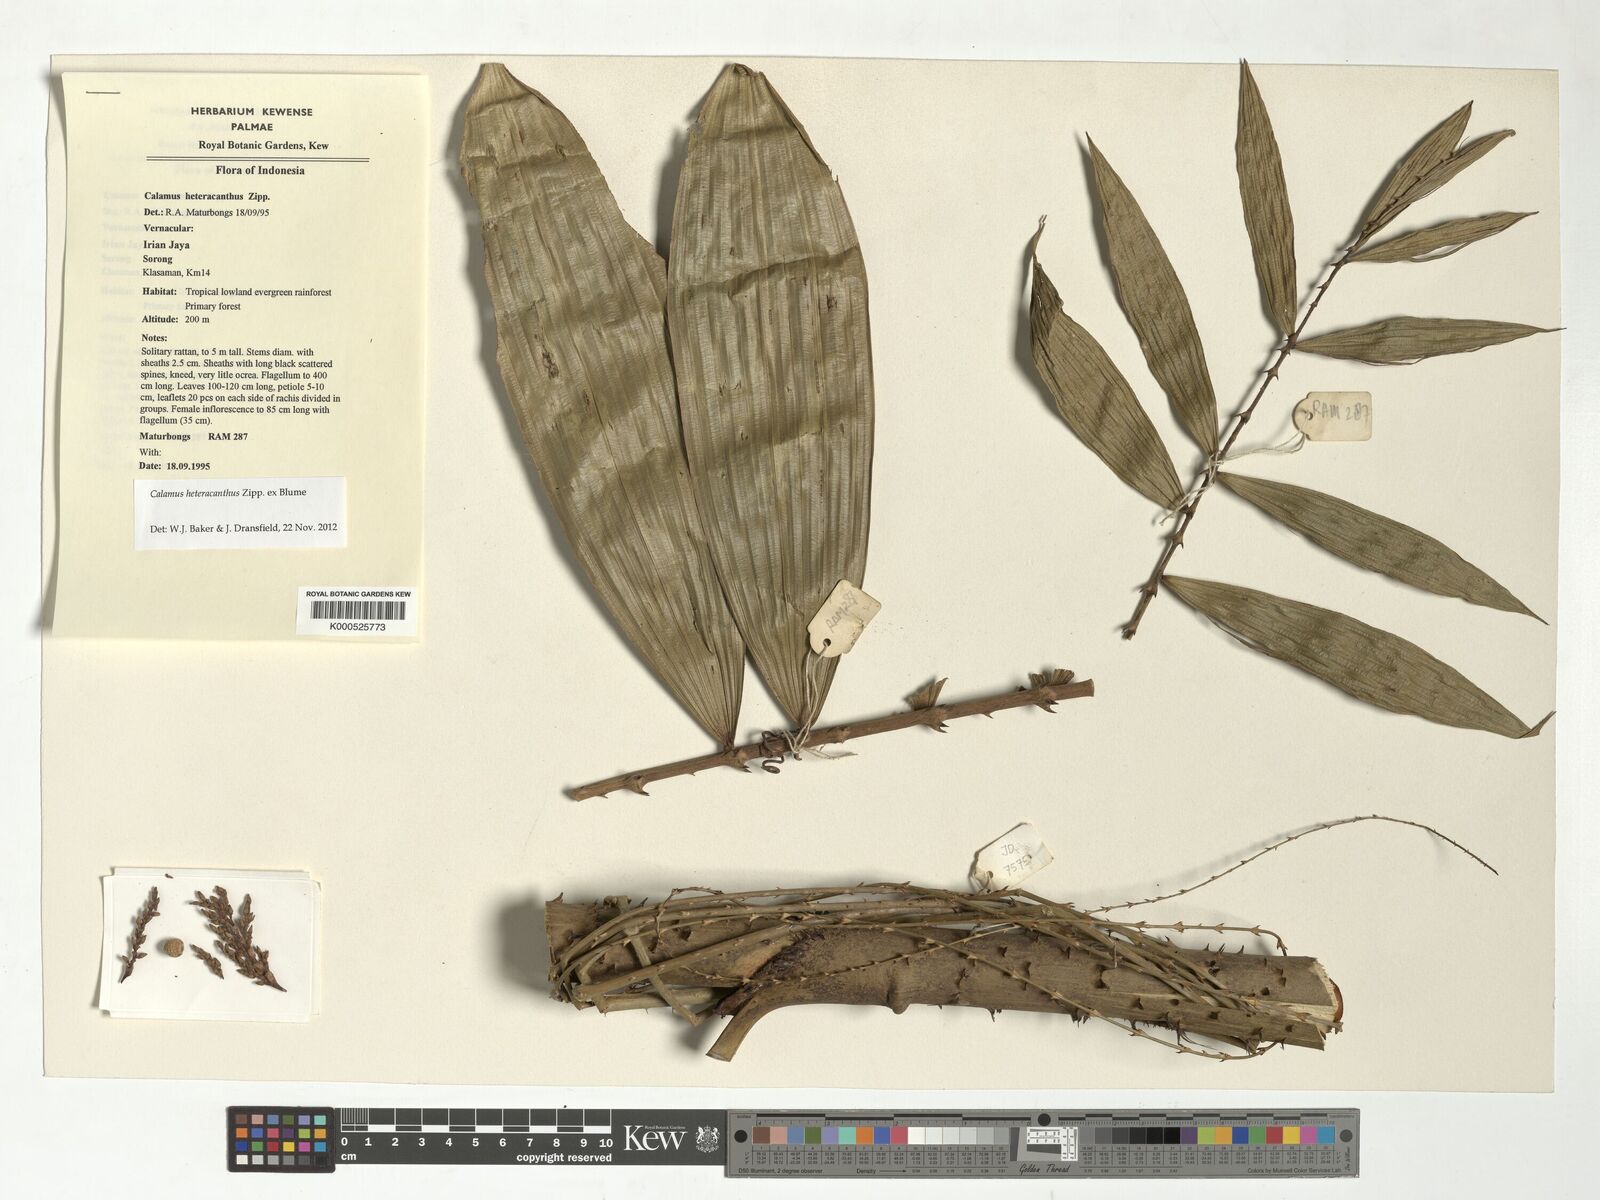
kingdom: Plantae
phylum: Tracheophyta
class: Liliopsida
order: Arecales
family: Arecaceae
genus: Calamus
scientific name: Calamus heteracanthus
